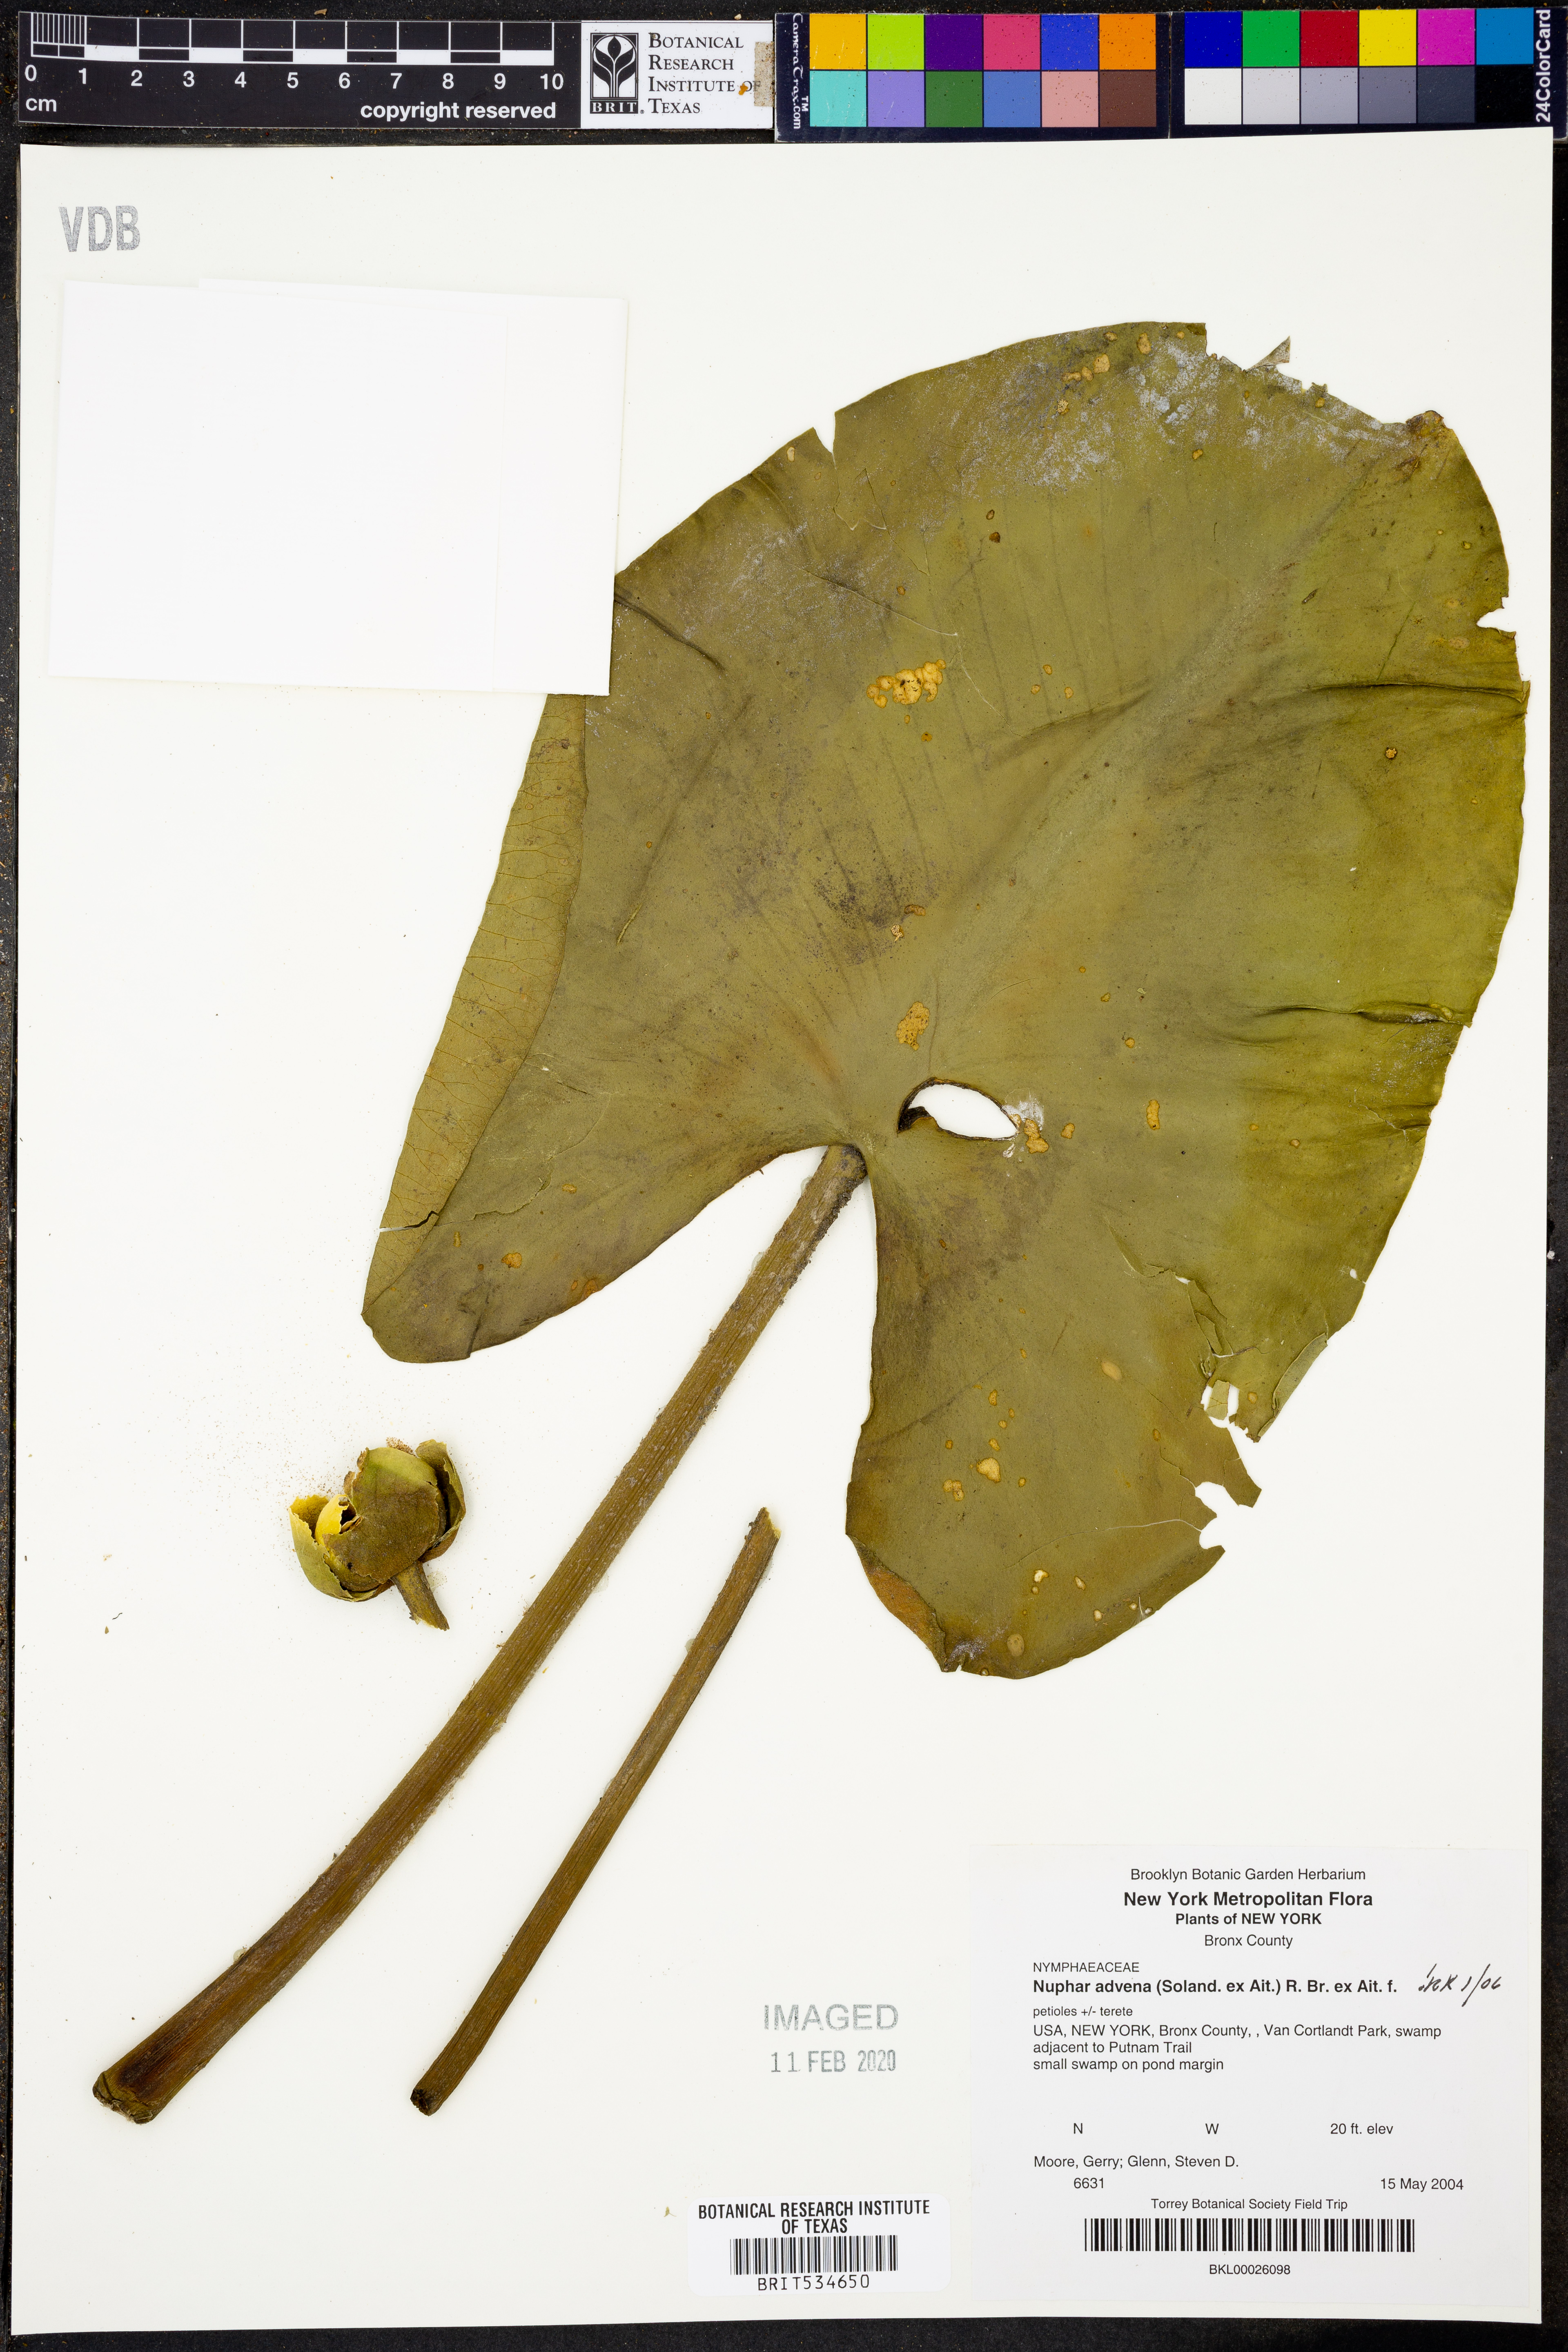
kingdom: Plantae
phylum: Tracheophyta
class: Magnoliopsida
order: Nymphaeales
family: Nymphaeaceae
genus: Nuphar
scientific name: Nuphar advena
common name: Spatter-dock
